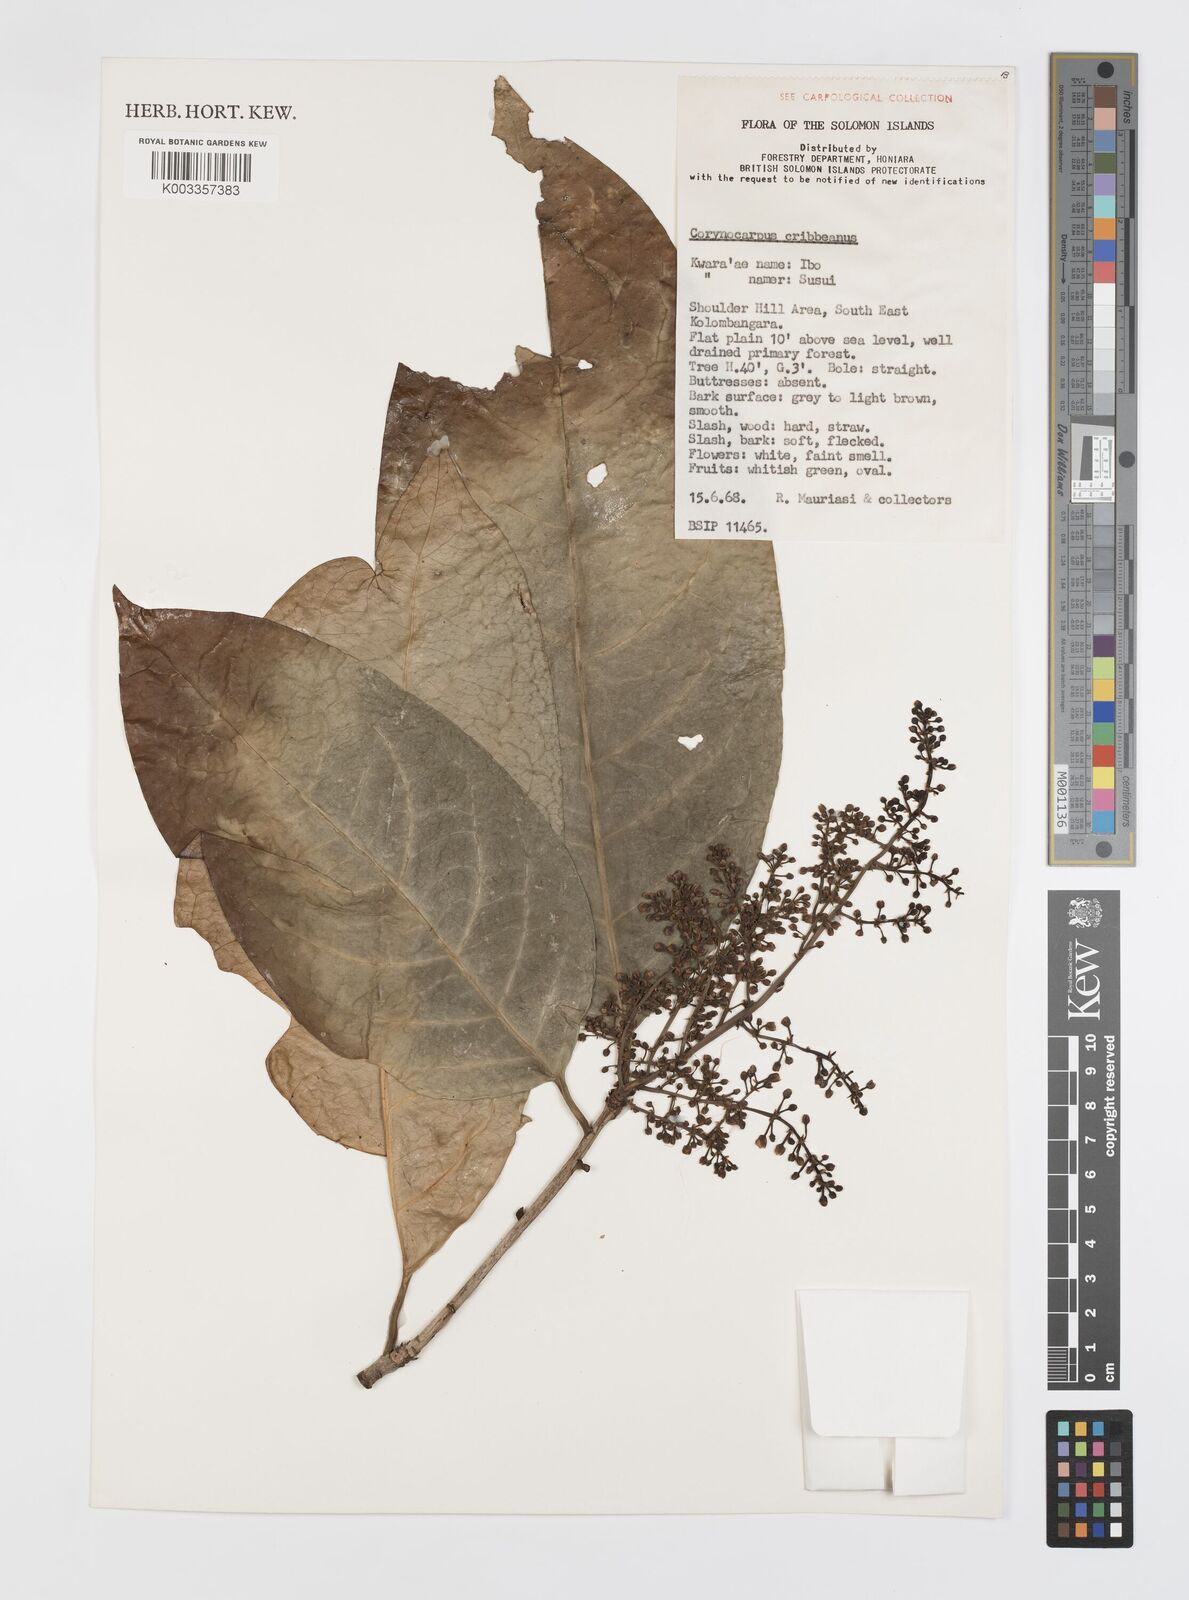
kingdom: Plantae
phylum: Tracheophyta
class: Magnoliopsida
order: Cucurbitales
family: Corynocarpaceae
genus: Corynocarpus
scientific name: Corynocarpus similis
